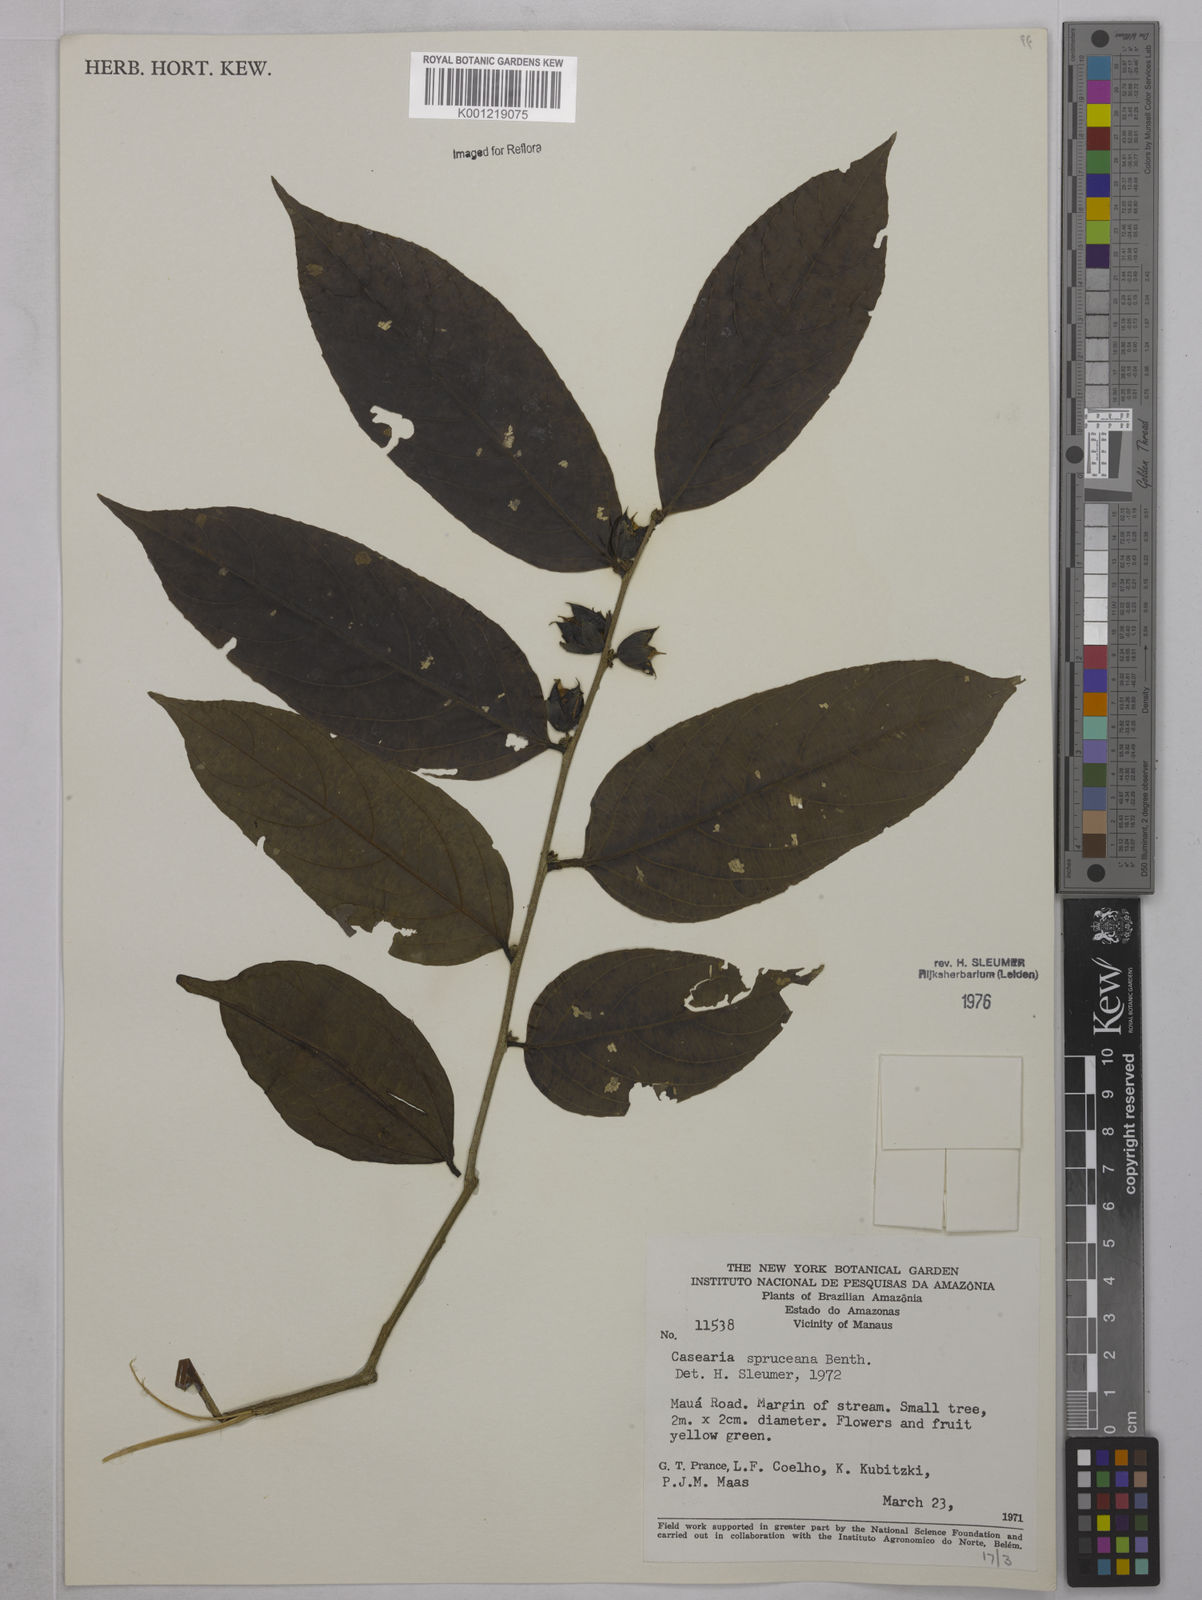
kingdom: Plantae
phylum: Tracheophyta
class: Magnoliopsida
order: Malpighiales
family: Salicaceae
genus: Piparea
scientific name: Piparea spruceana
